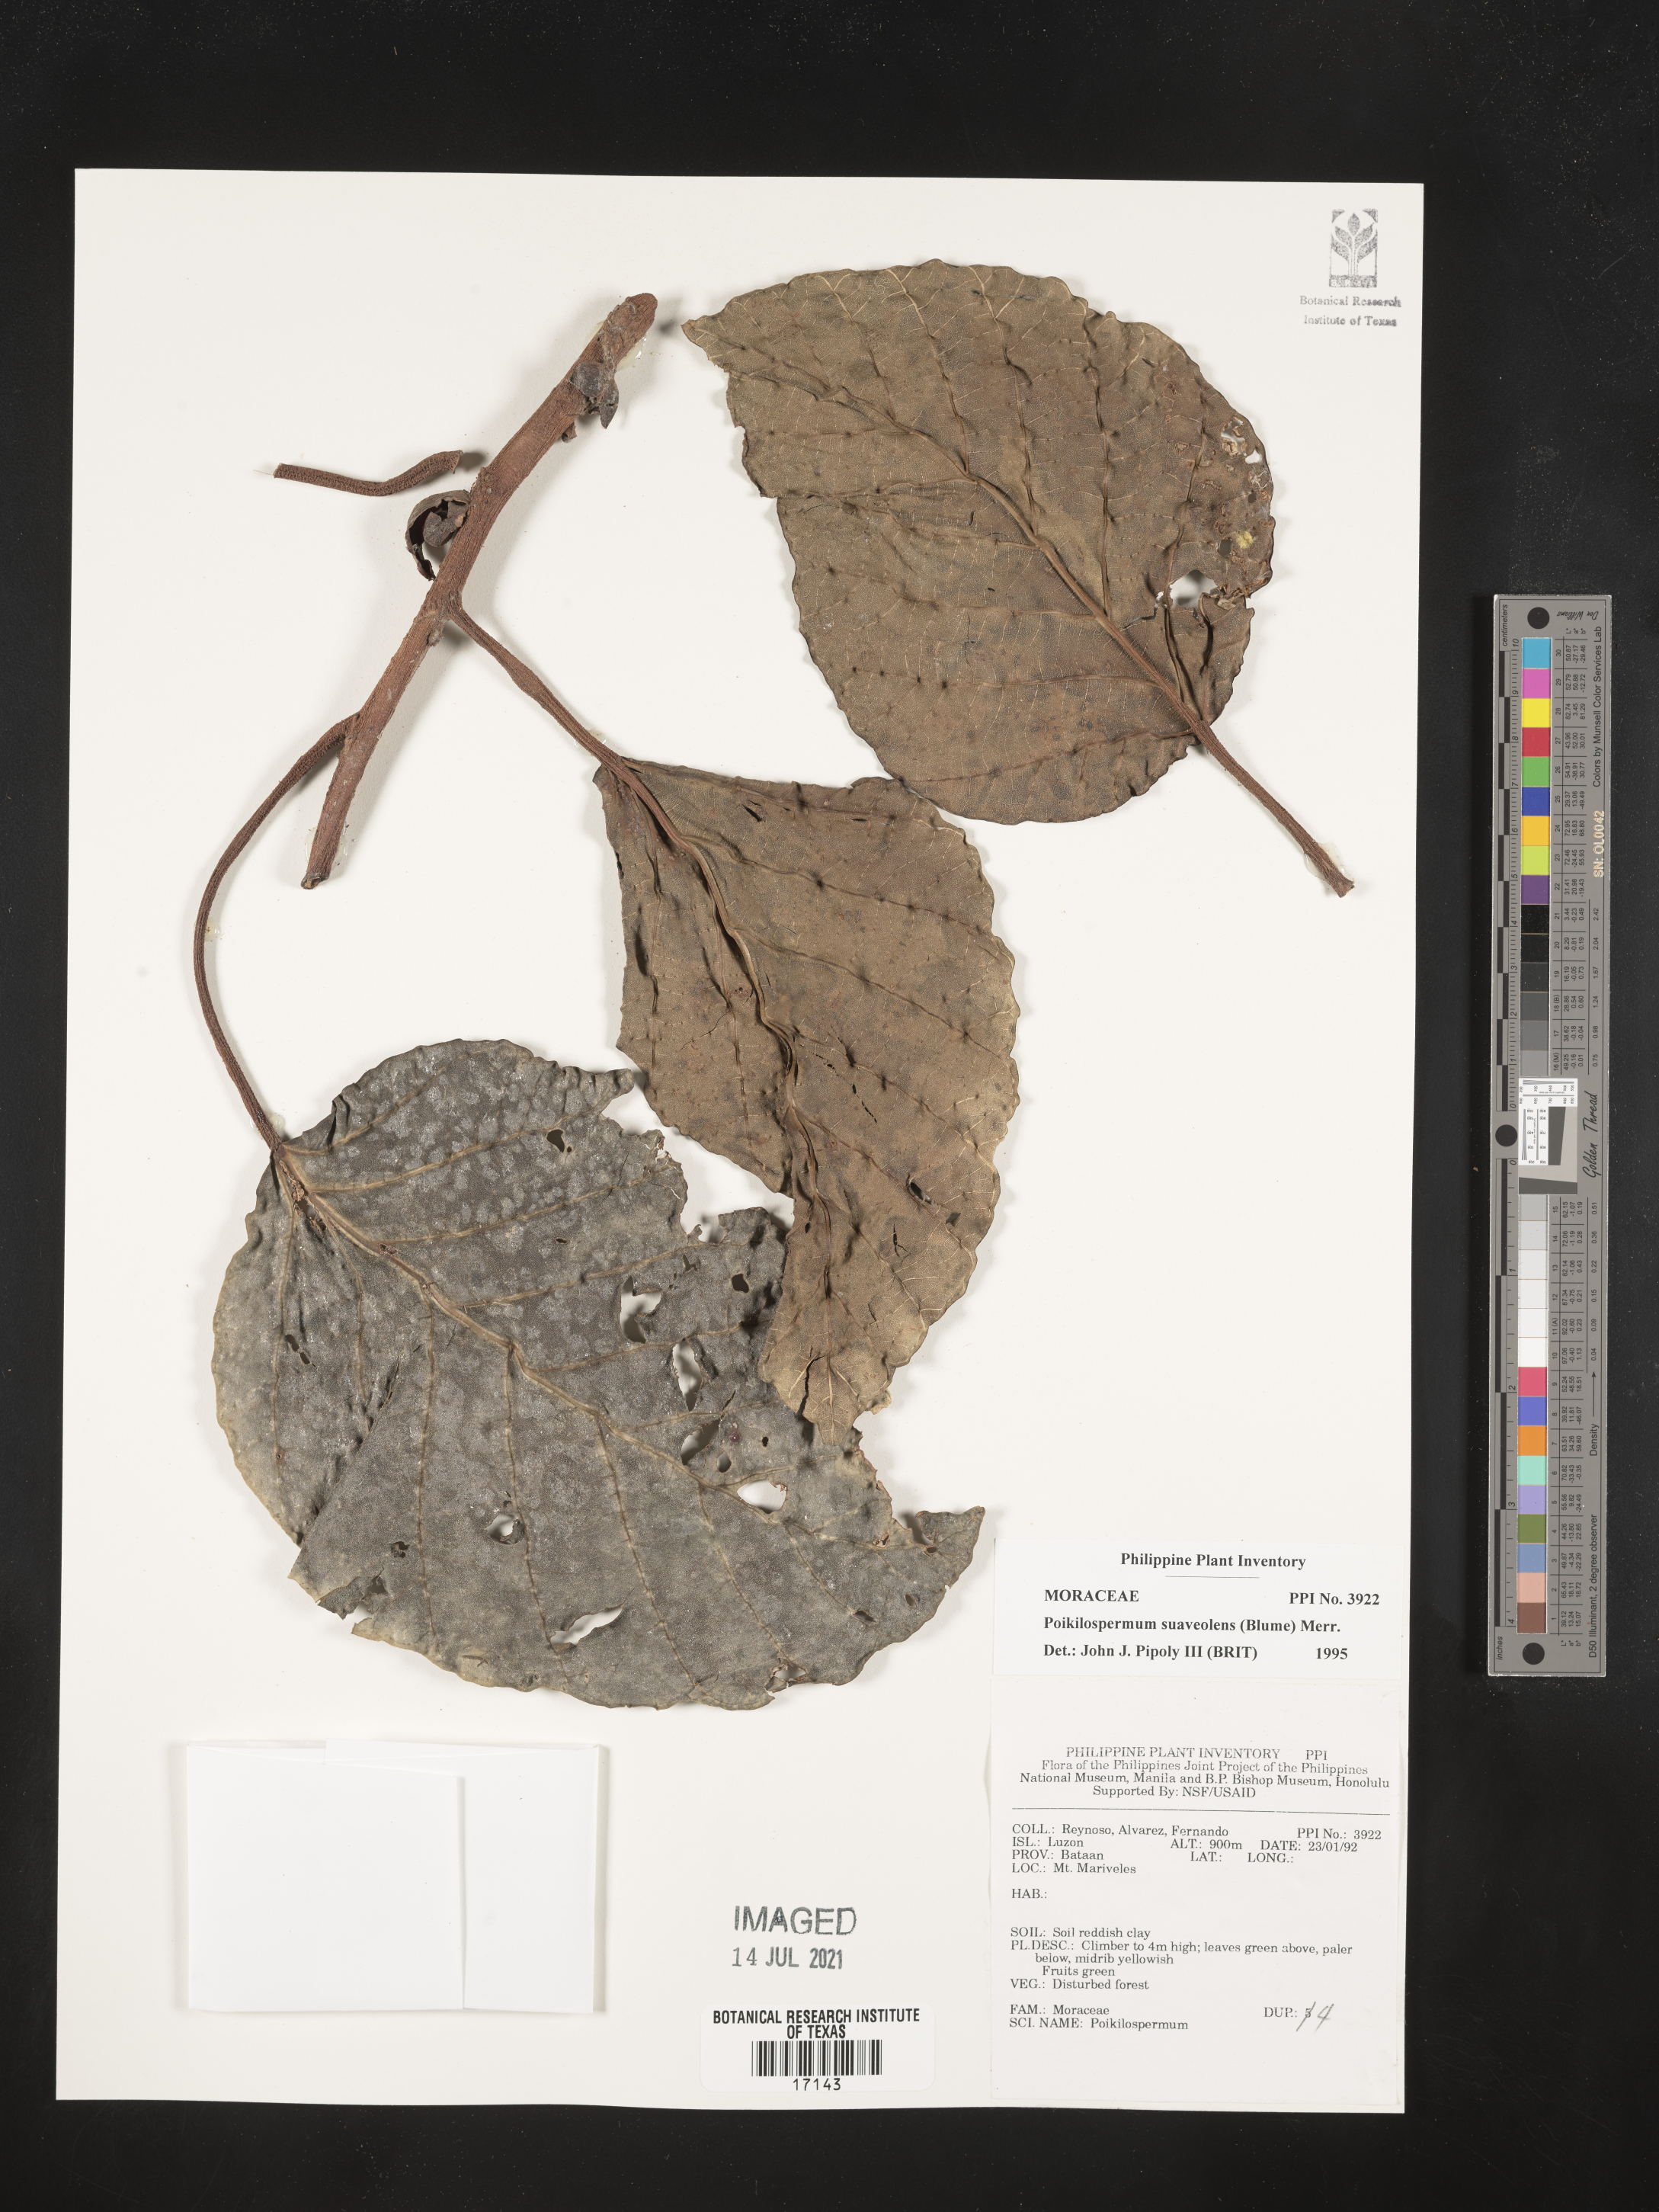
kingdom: Plantae
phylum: Tracheophyta
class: Magnoliopsida
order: Rosales
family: Urticaceae
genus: Poikilospermum
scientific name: Poikilospermum suaveolens
